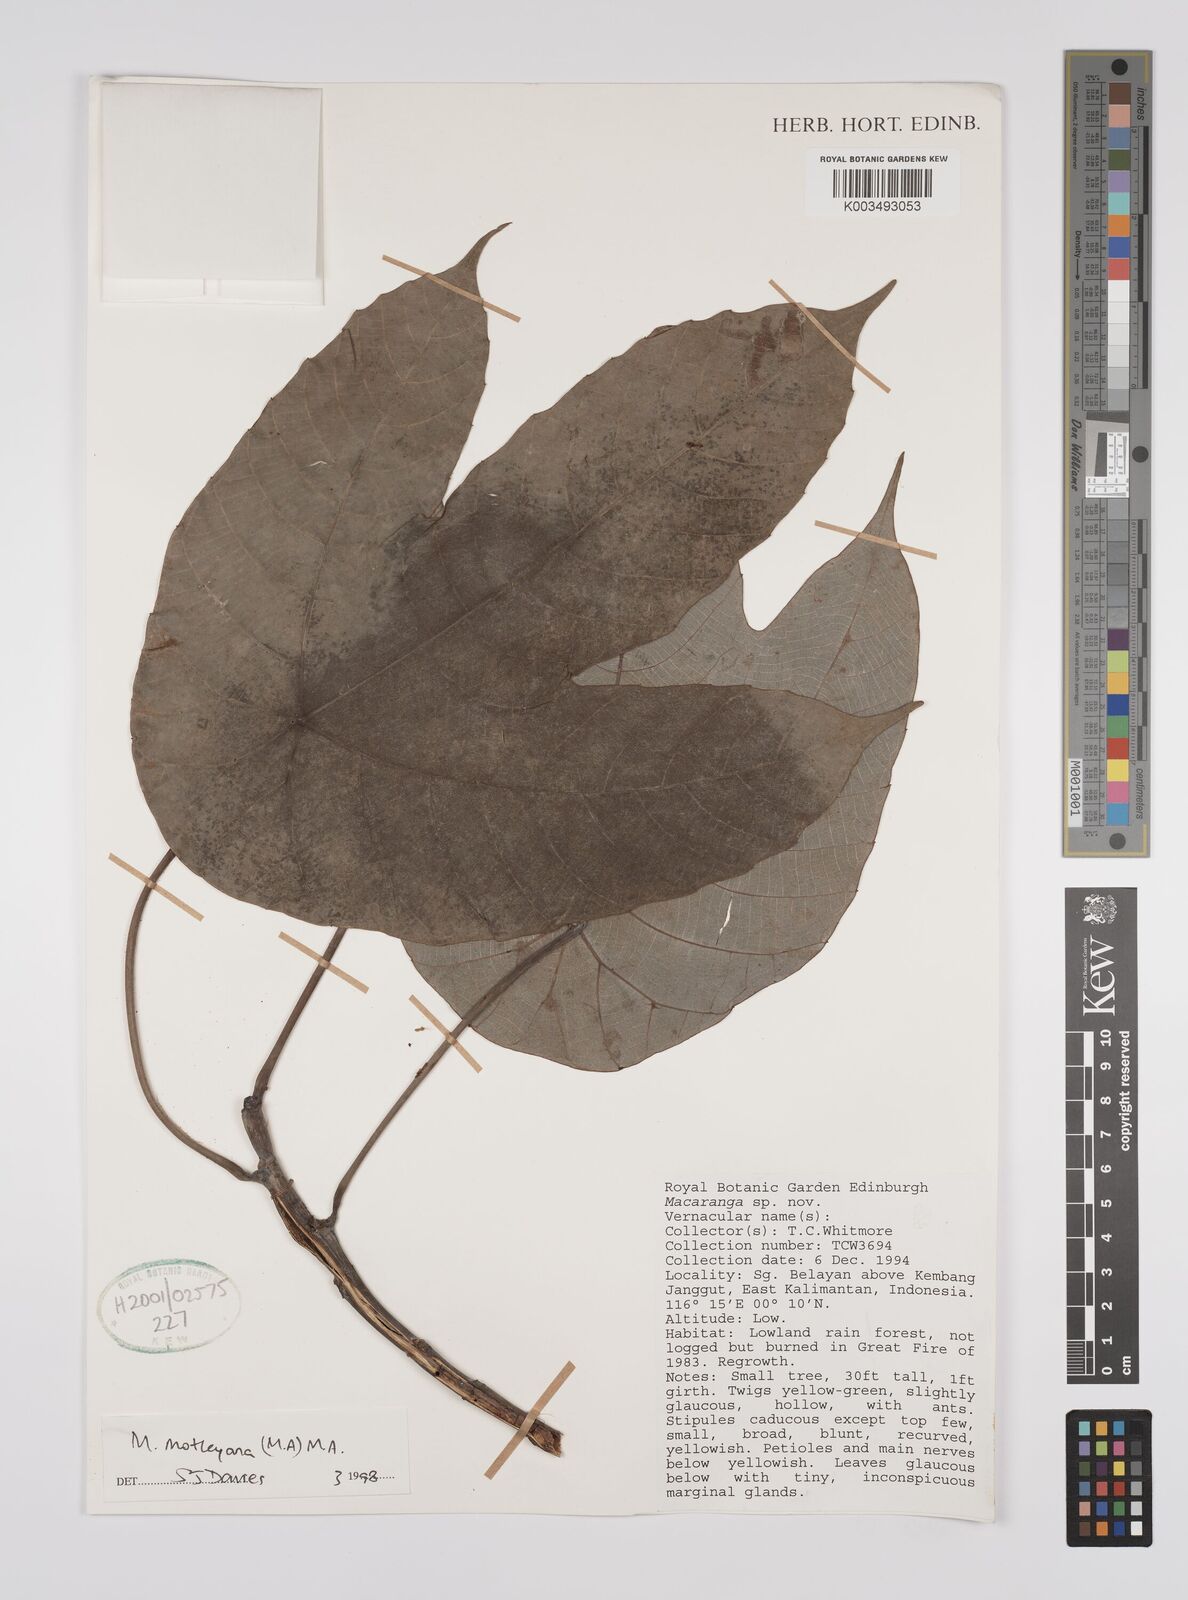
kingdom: Plantae
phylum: Tracheophyta
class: Magnoliopsida
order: Malpighiales
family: Euphorbiaceae
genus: Macaranga
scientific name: Macaranga motleyana
